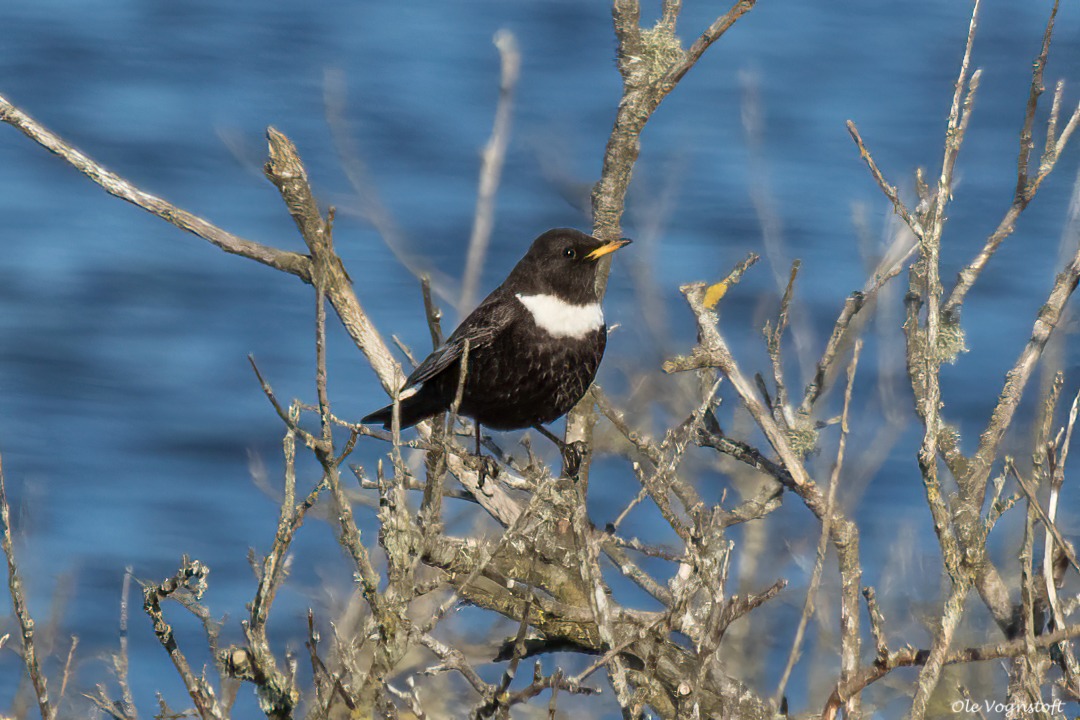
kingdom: Animalia
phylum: Chordata
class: Aves
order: Passeriformes
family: Turdidae
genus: Turdus
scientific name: Turdus torquatus
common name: Ringdrossel
